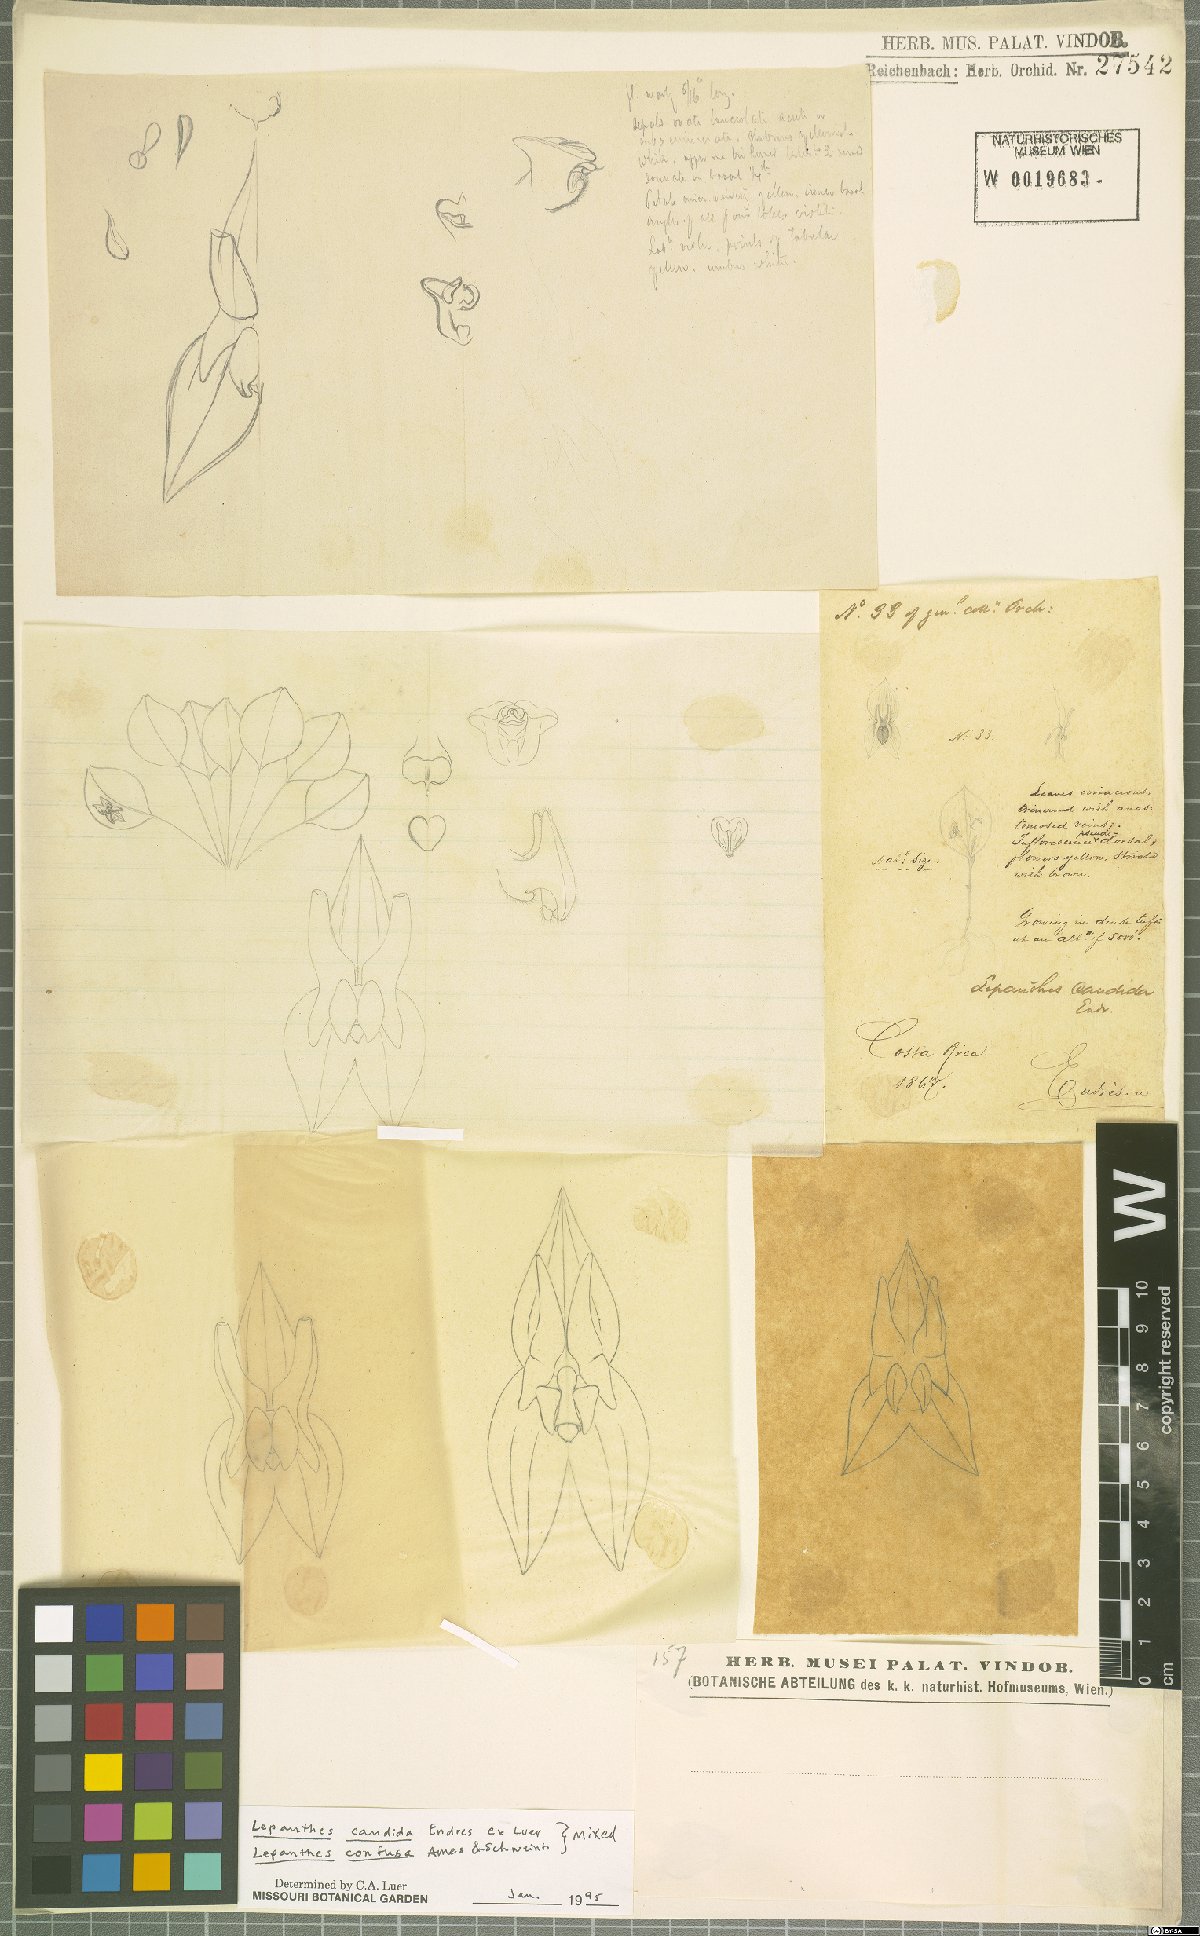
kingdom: Plantae
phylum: Tracheophyta
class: Liliopsida
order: Asparagales
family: Orchidaceae
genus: Lepanthes
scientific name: Lepanthes candida
